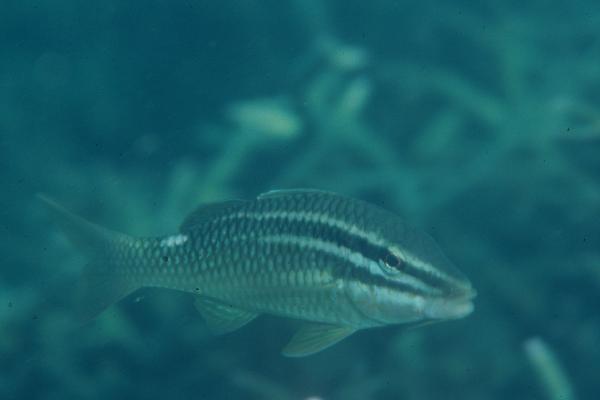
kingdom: Animalia
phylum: Chordata
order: Perciformes
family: Mullidae
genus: Parupeneus
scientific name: Parupeneus rubescens
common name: Rosy goatfish
